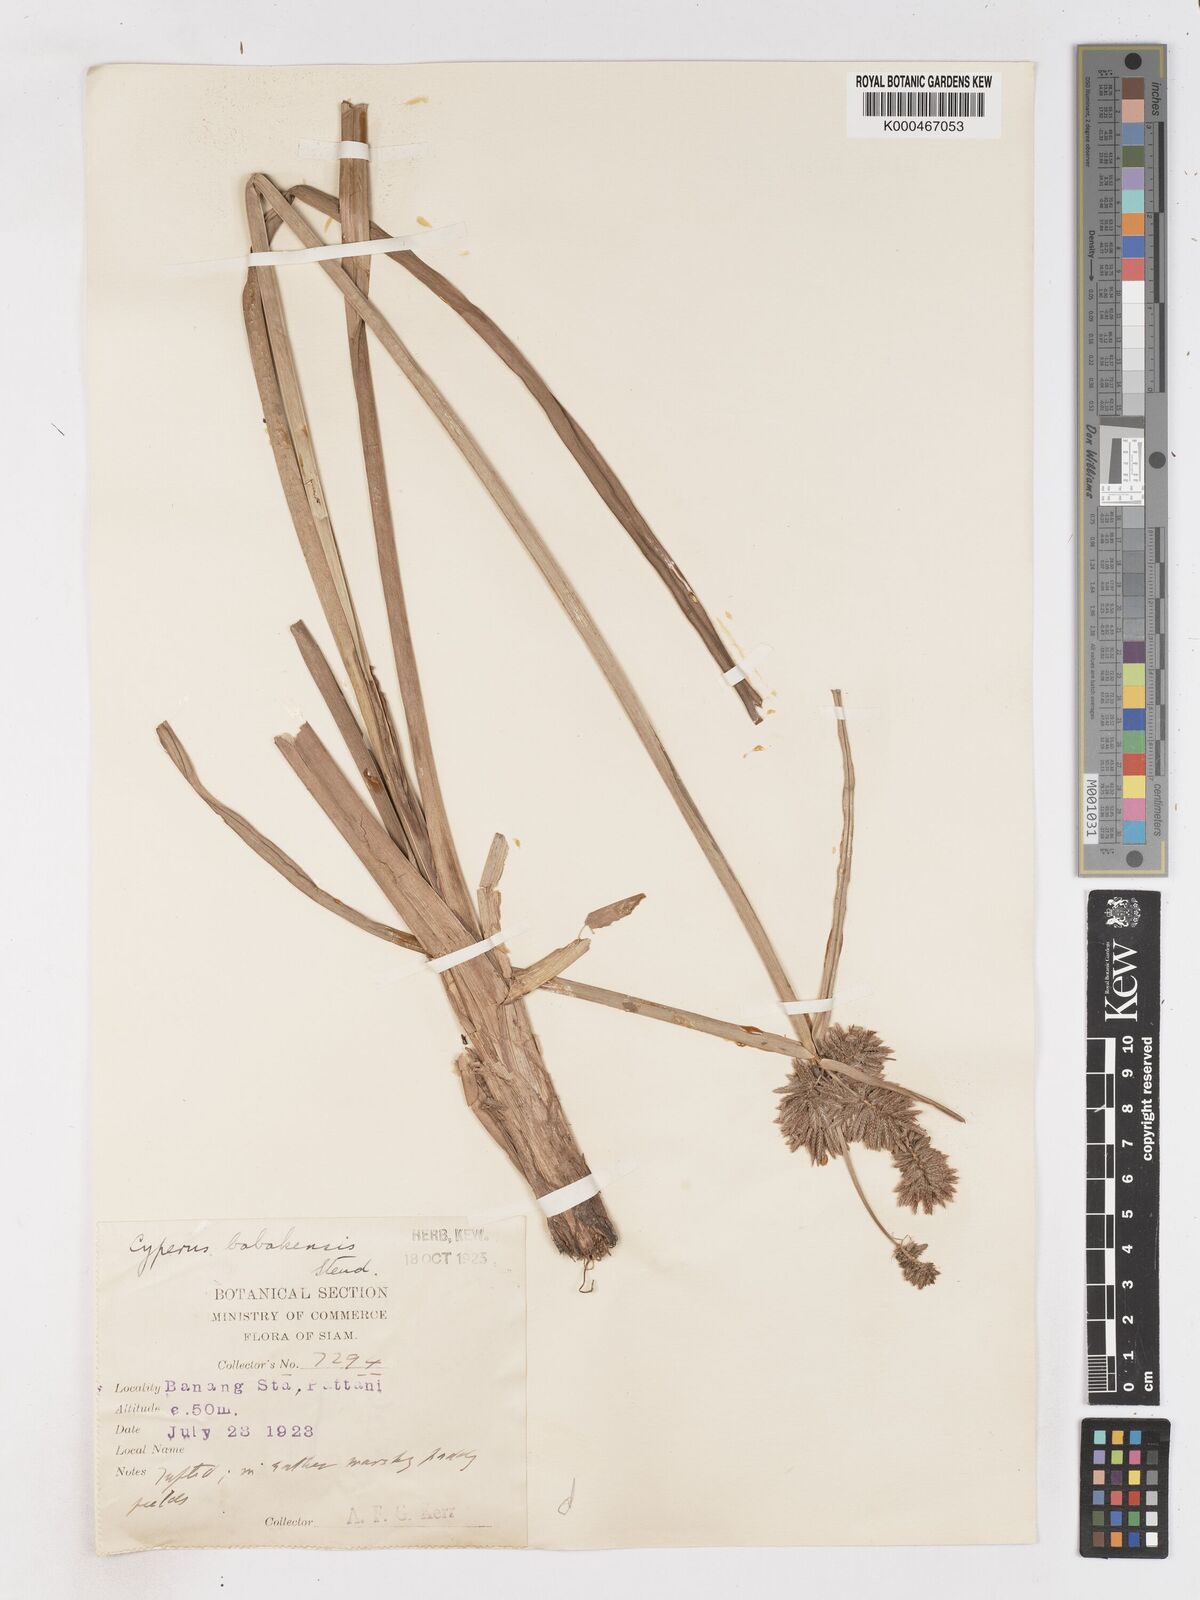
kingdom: Plantae
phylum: Tracheophyta
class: Liliopsida
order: Poales
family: Cyperaceae
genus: Cyperus
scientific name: Cyperus babakan
